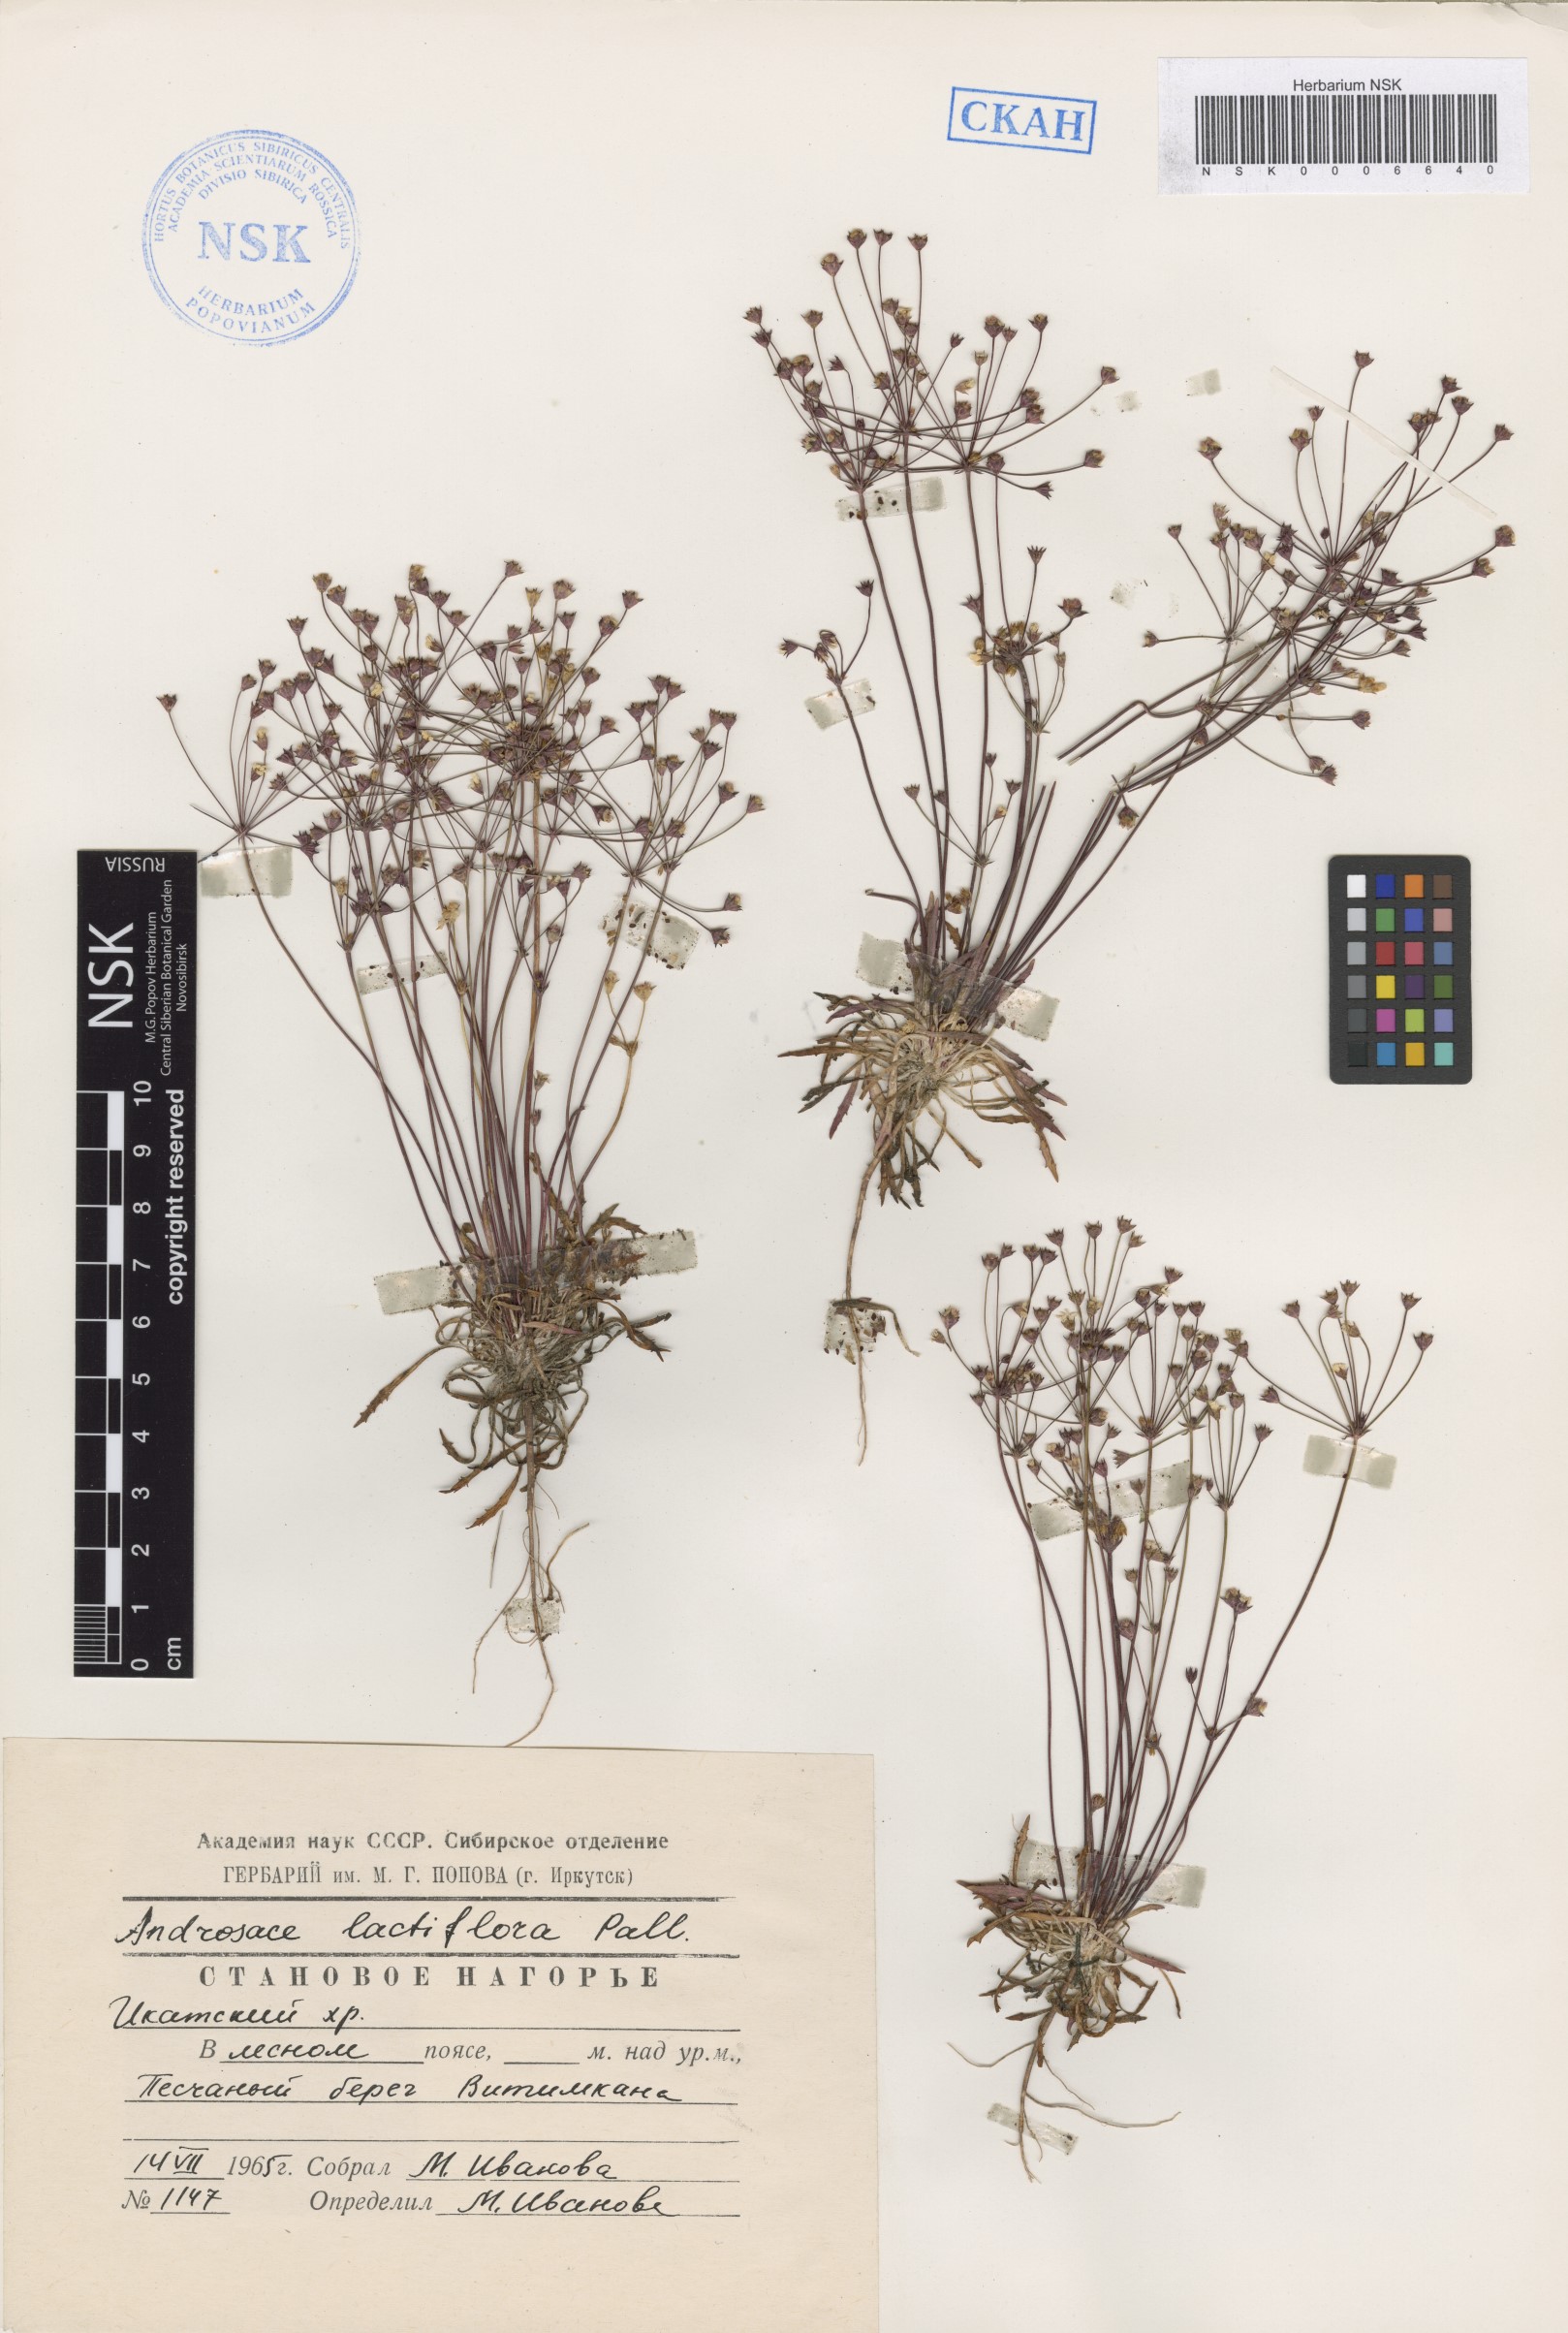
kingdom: Plantae
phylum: Tracheophyta
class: Magnoliopsida
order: Ericales
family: Primulaceae
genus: Androsace
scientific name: Androsace lactiflora
